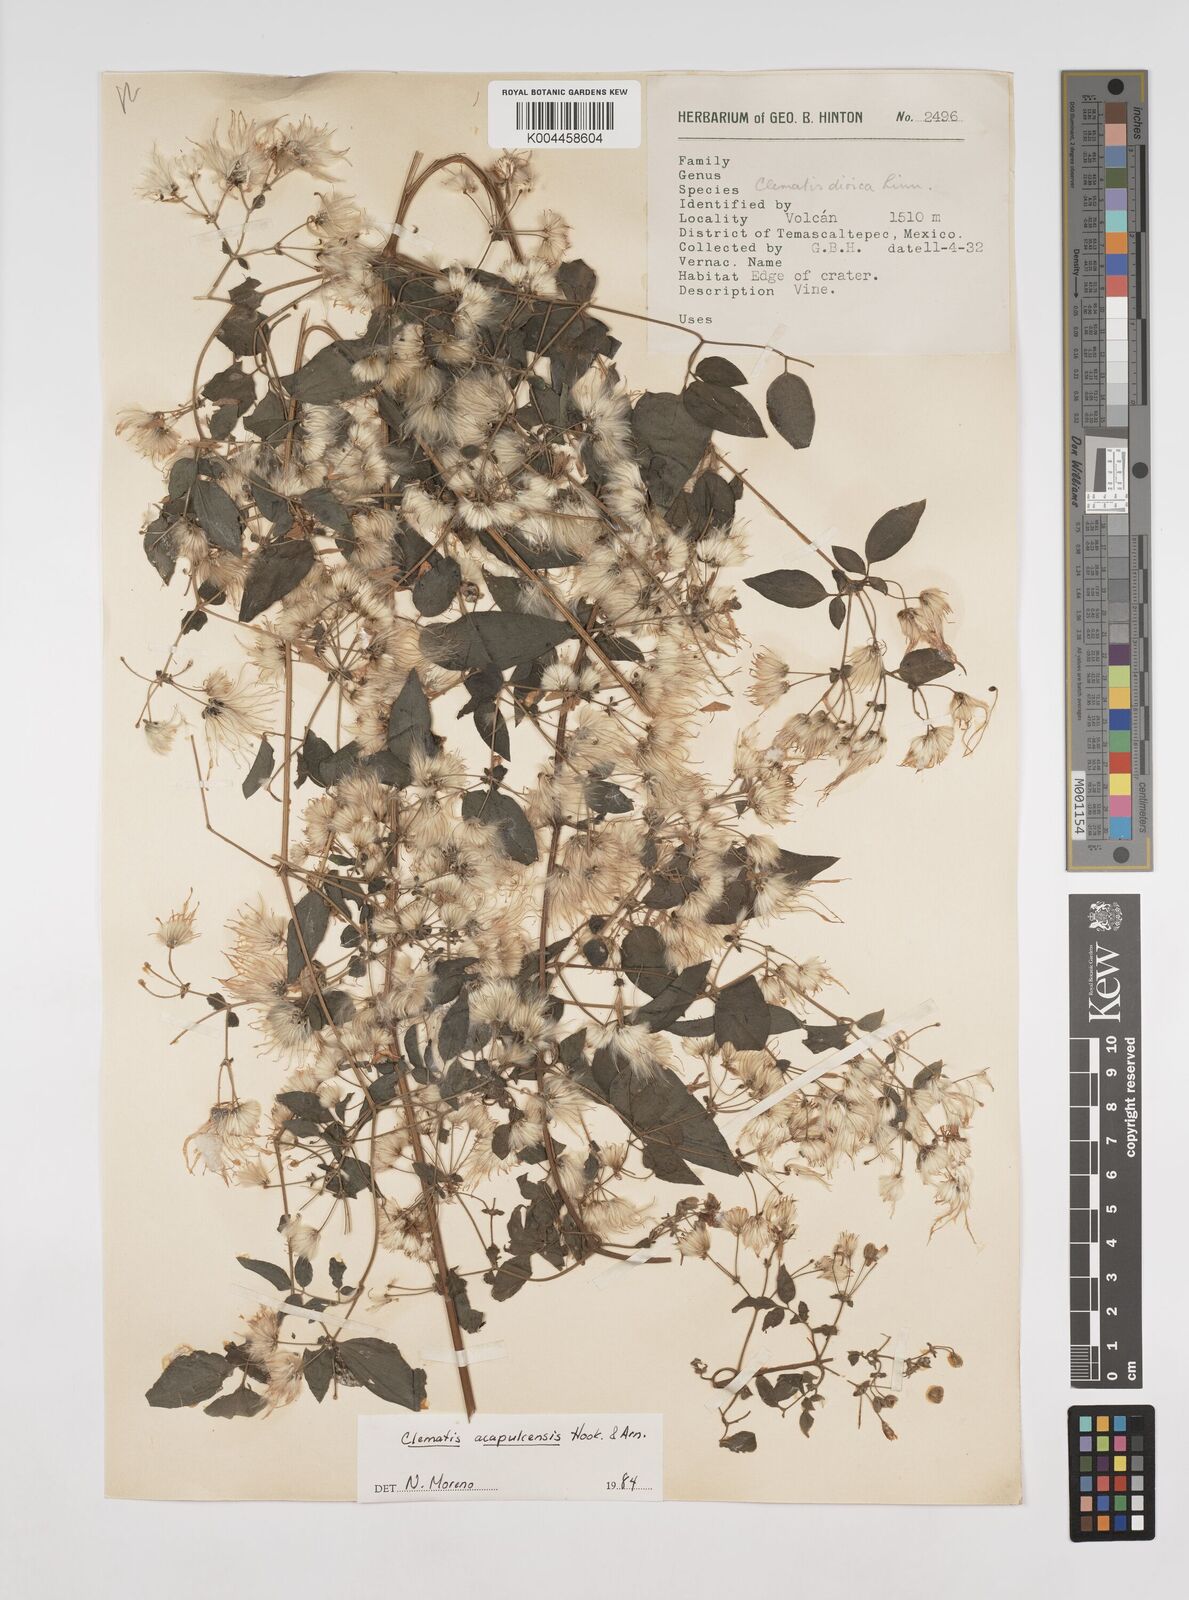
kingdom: Plantae
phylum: Tracheophyta
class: Magnoliopsida
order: Ranunculales
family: Ranunculaceae
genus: Clematis
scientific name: Clematis acapulcensis
